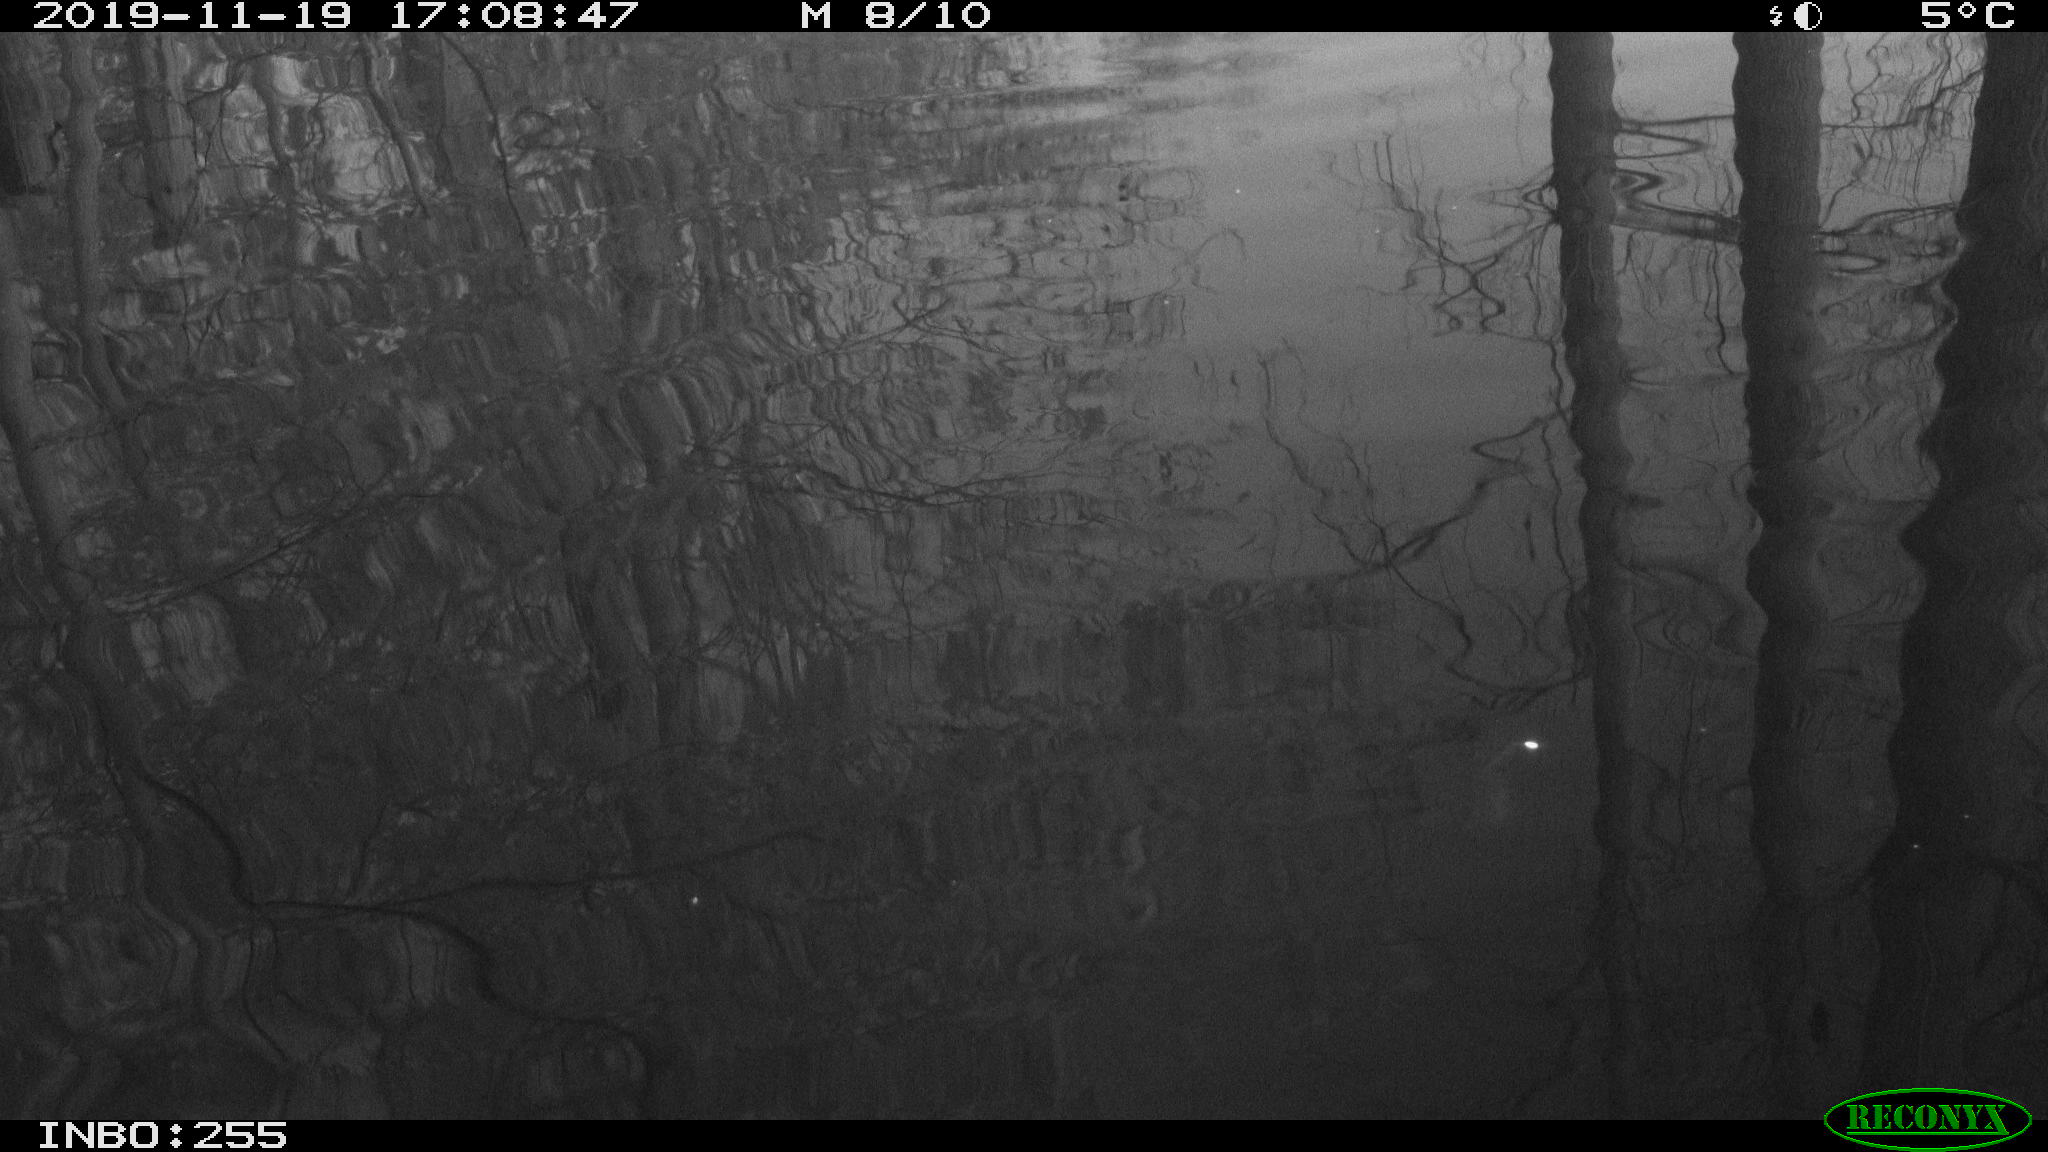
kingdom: Animalia
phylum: Chordata
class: Aves
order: Gruiformes
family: Rallidae
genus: Gallinula
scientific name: Gallinula chloropus
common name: Common moorhen
